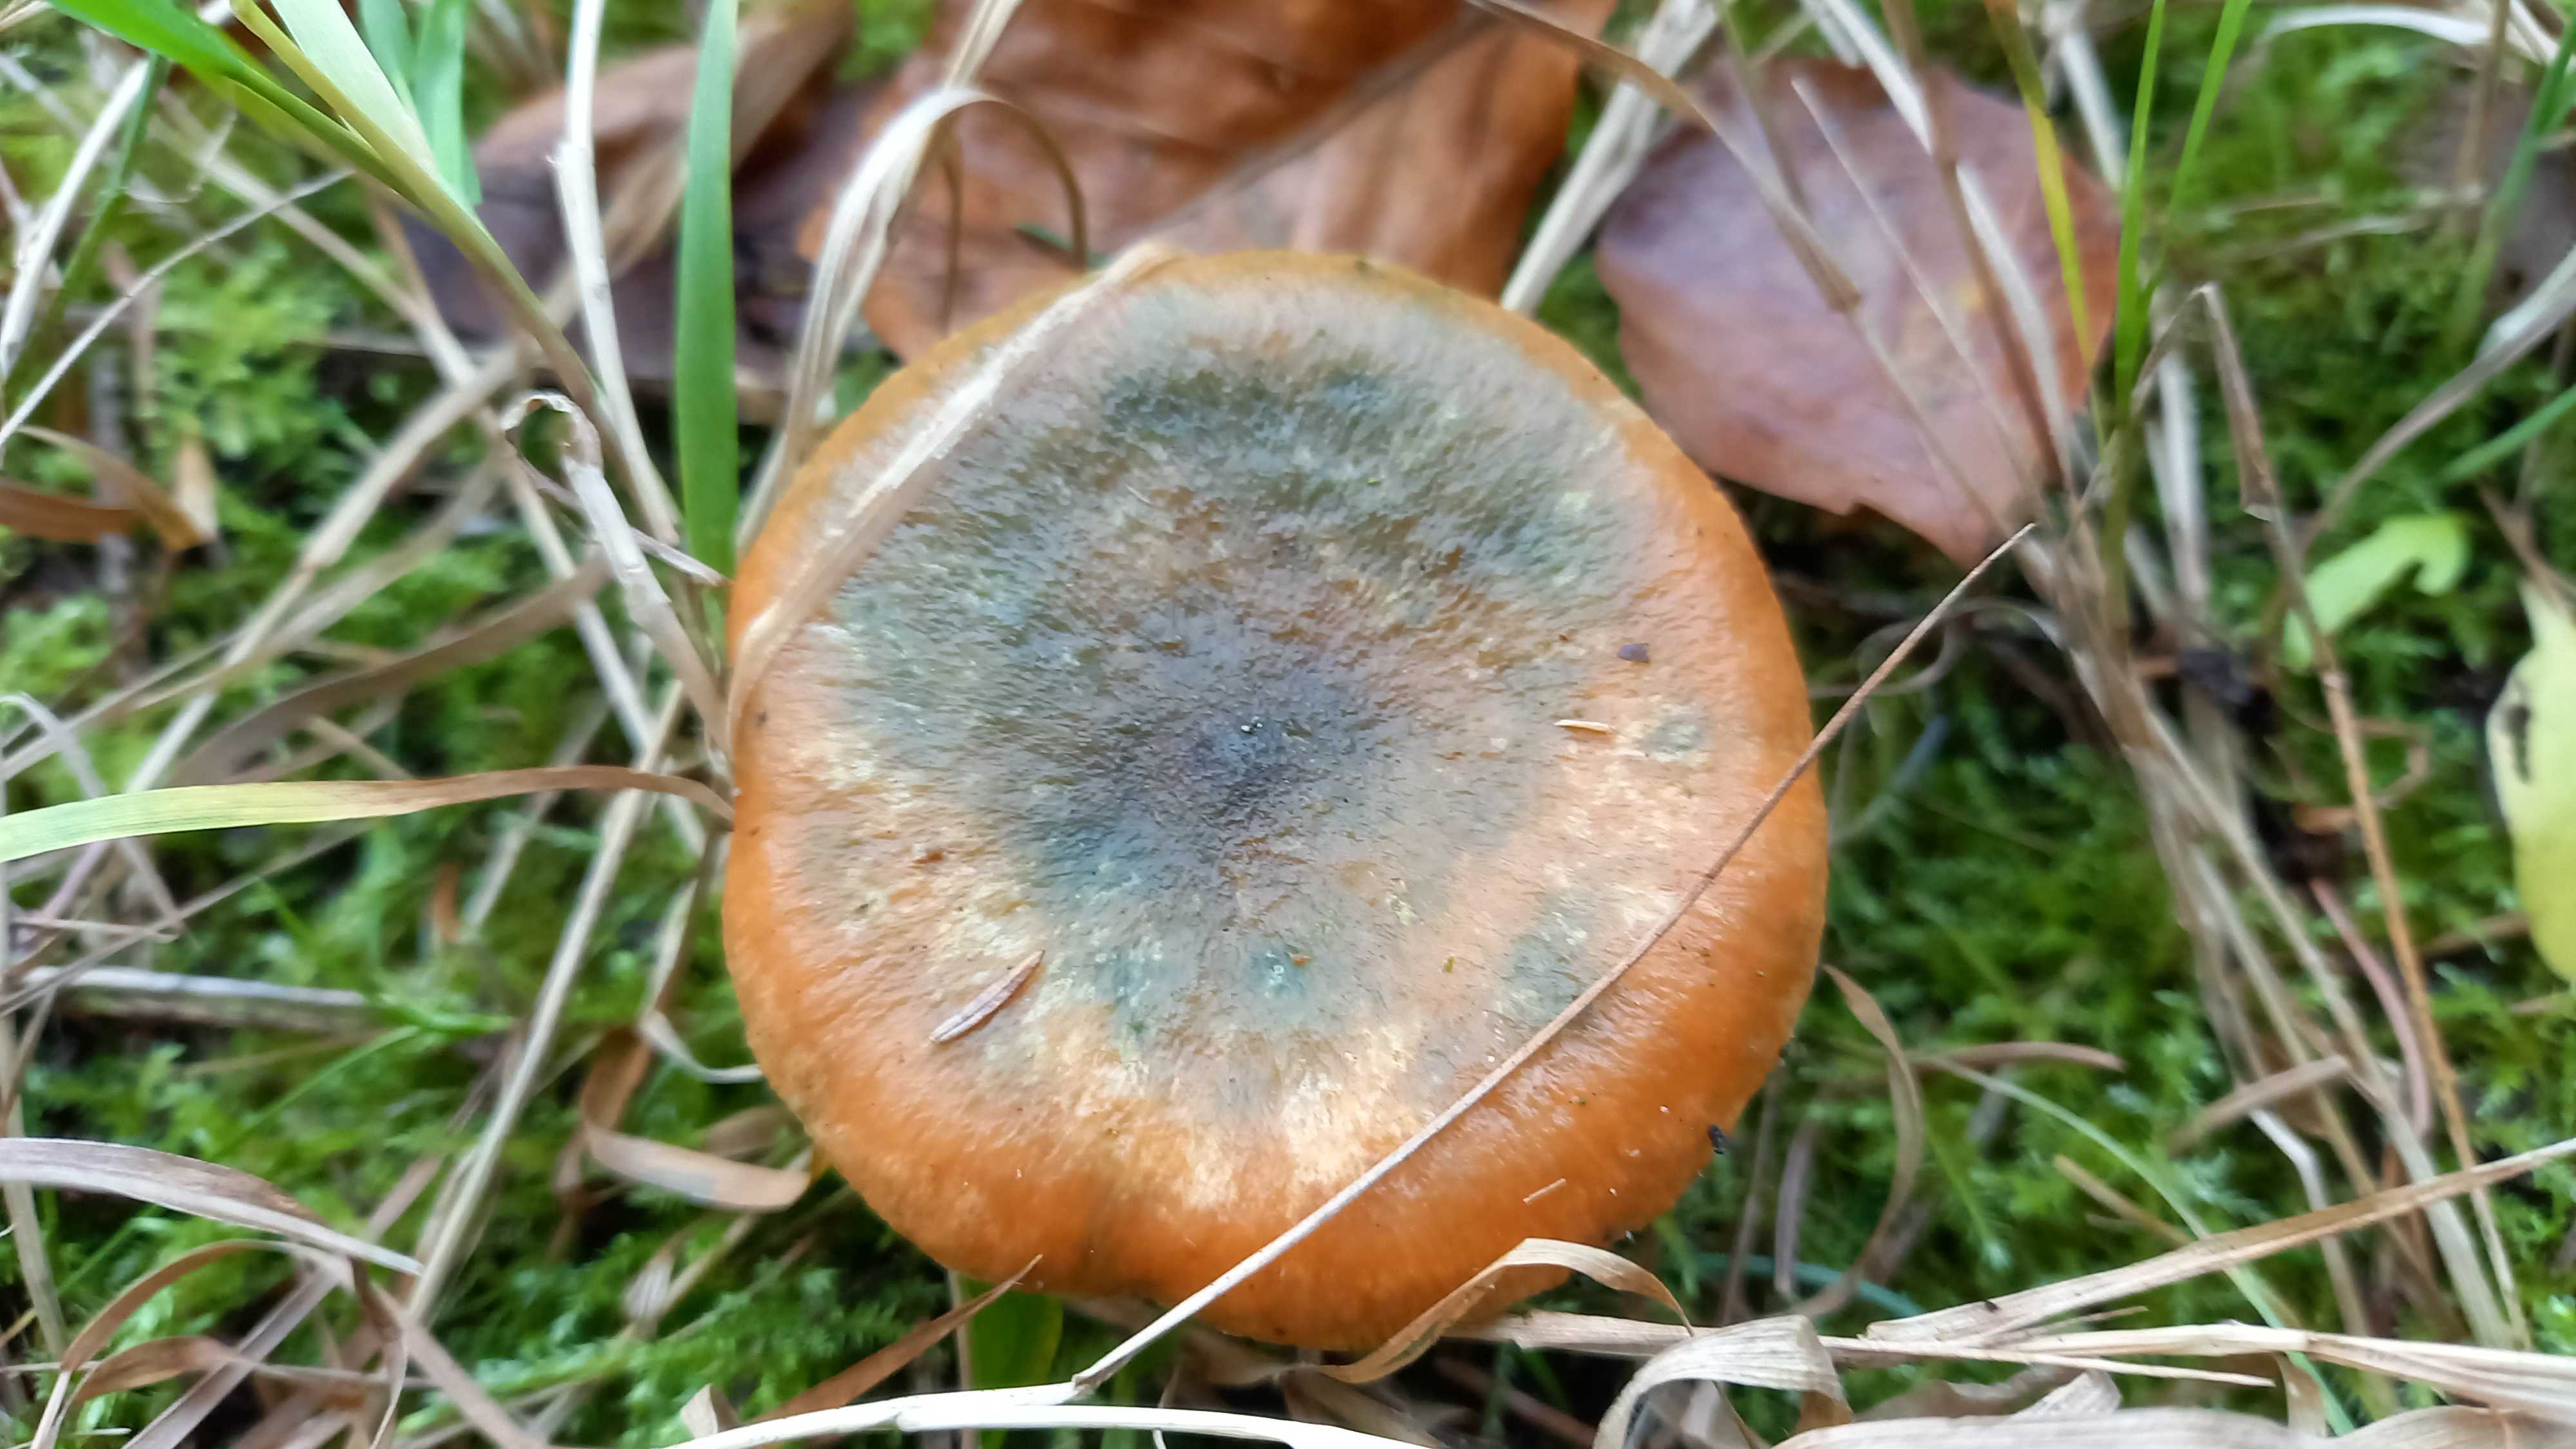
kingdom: Fungi
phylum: Basidiomycota
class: Agaricomycetes
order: Russulales
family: Russulaceae
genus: Lactarius
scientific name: Lactarius deterrimus
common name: gran-mælkehat
